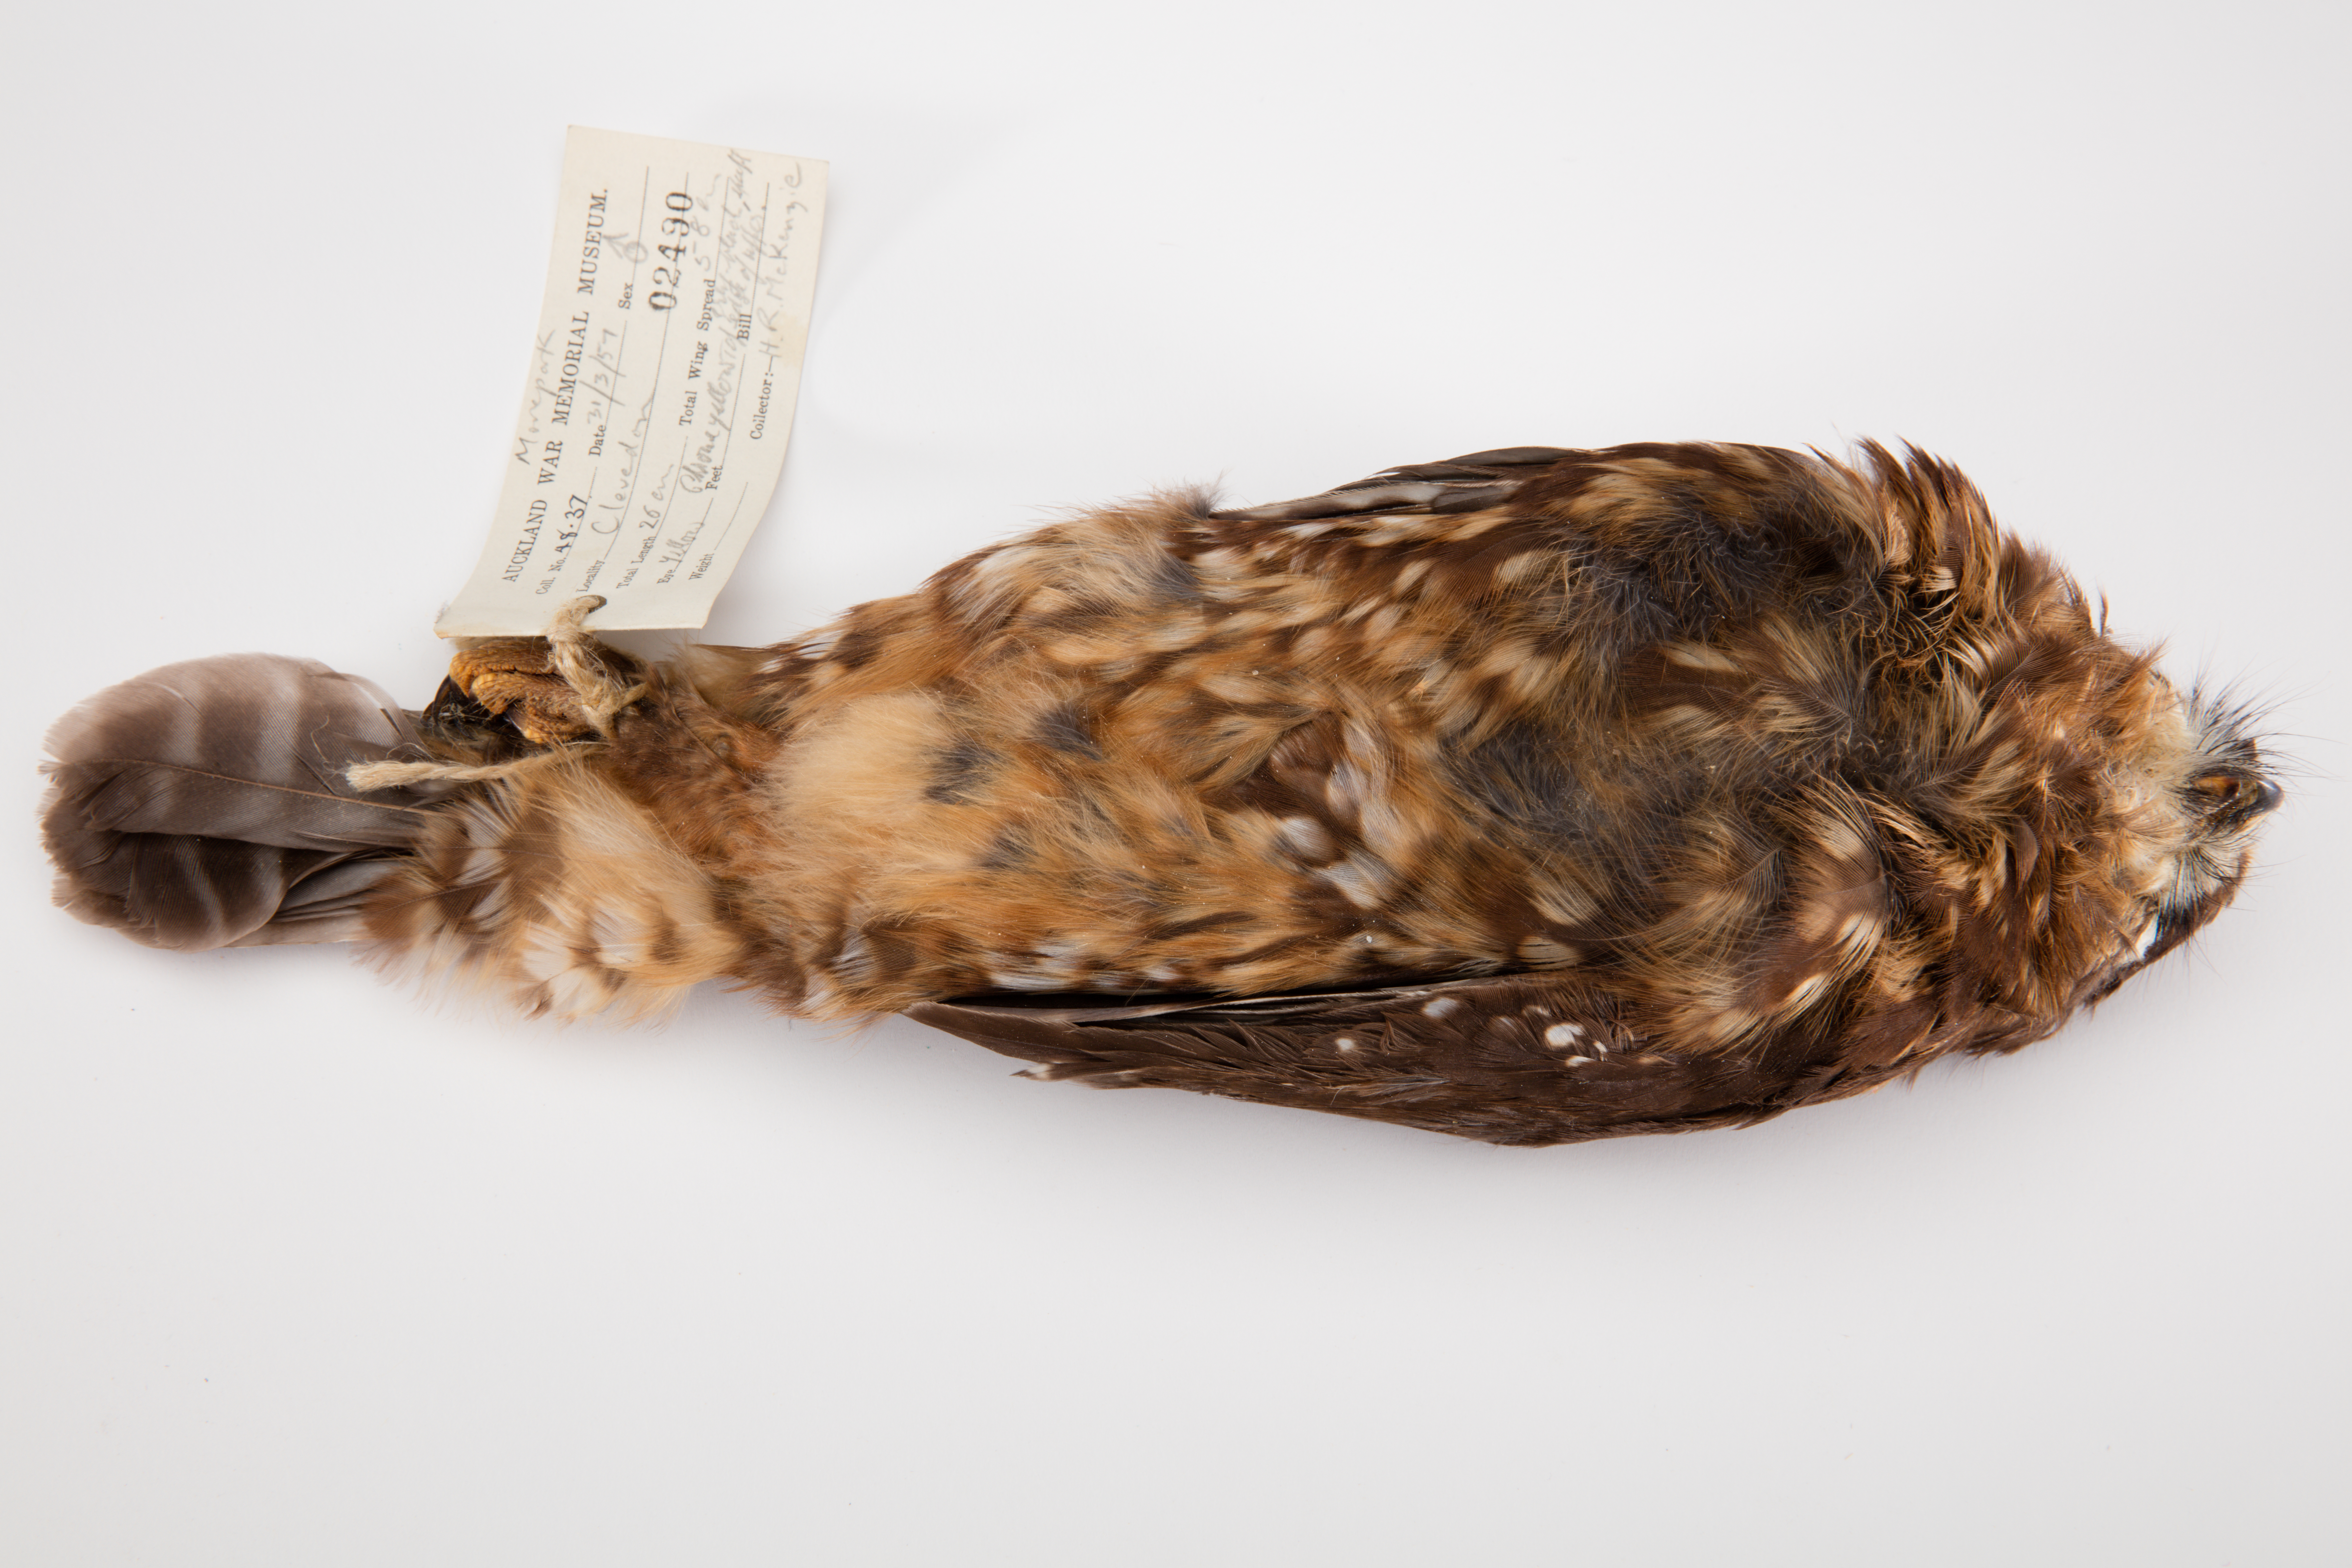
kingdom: Animalia
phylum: Chordata
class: Aves
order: Strigiformes
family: Strigidae
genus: Ninox
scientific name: Ninox novaeseelandiae
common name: Morepork
